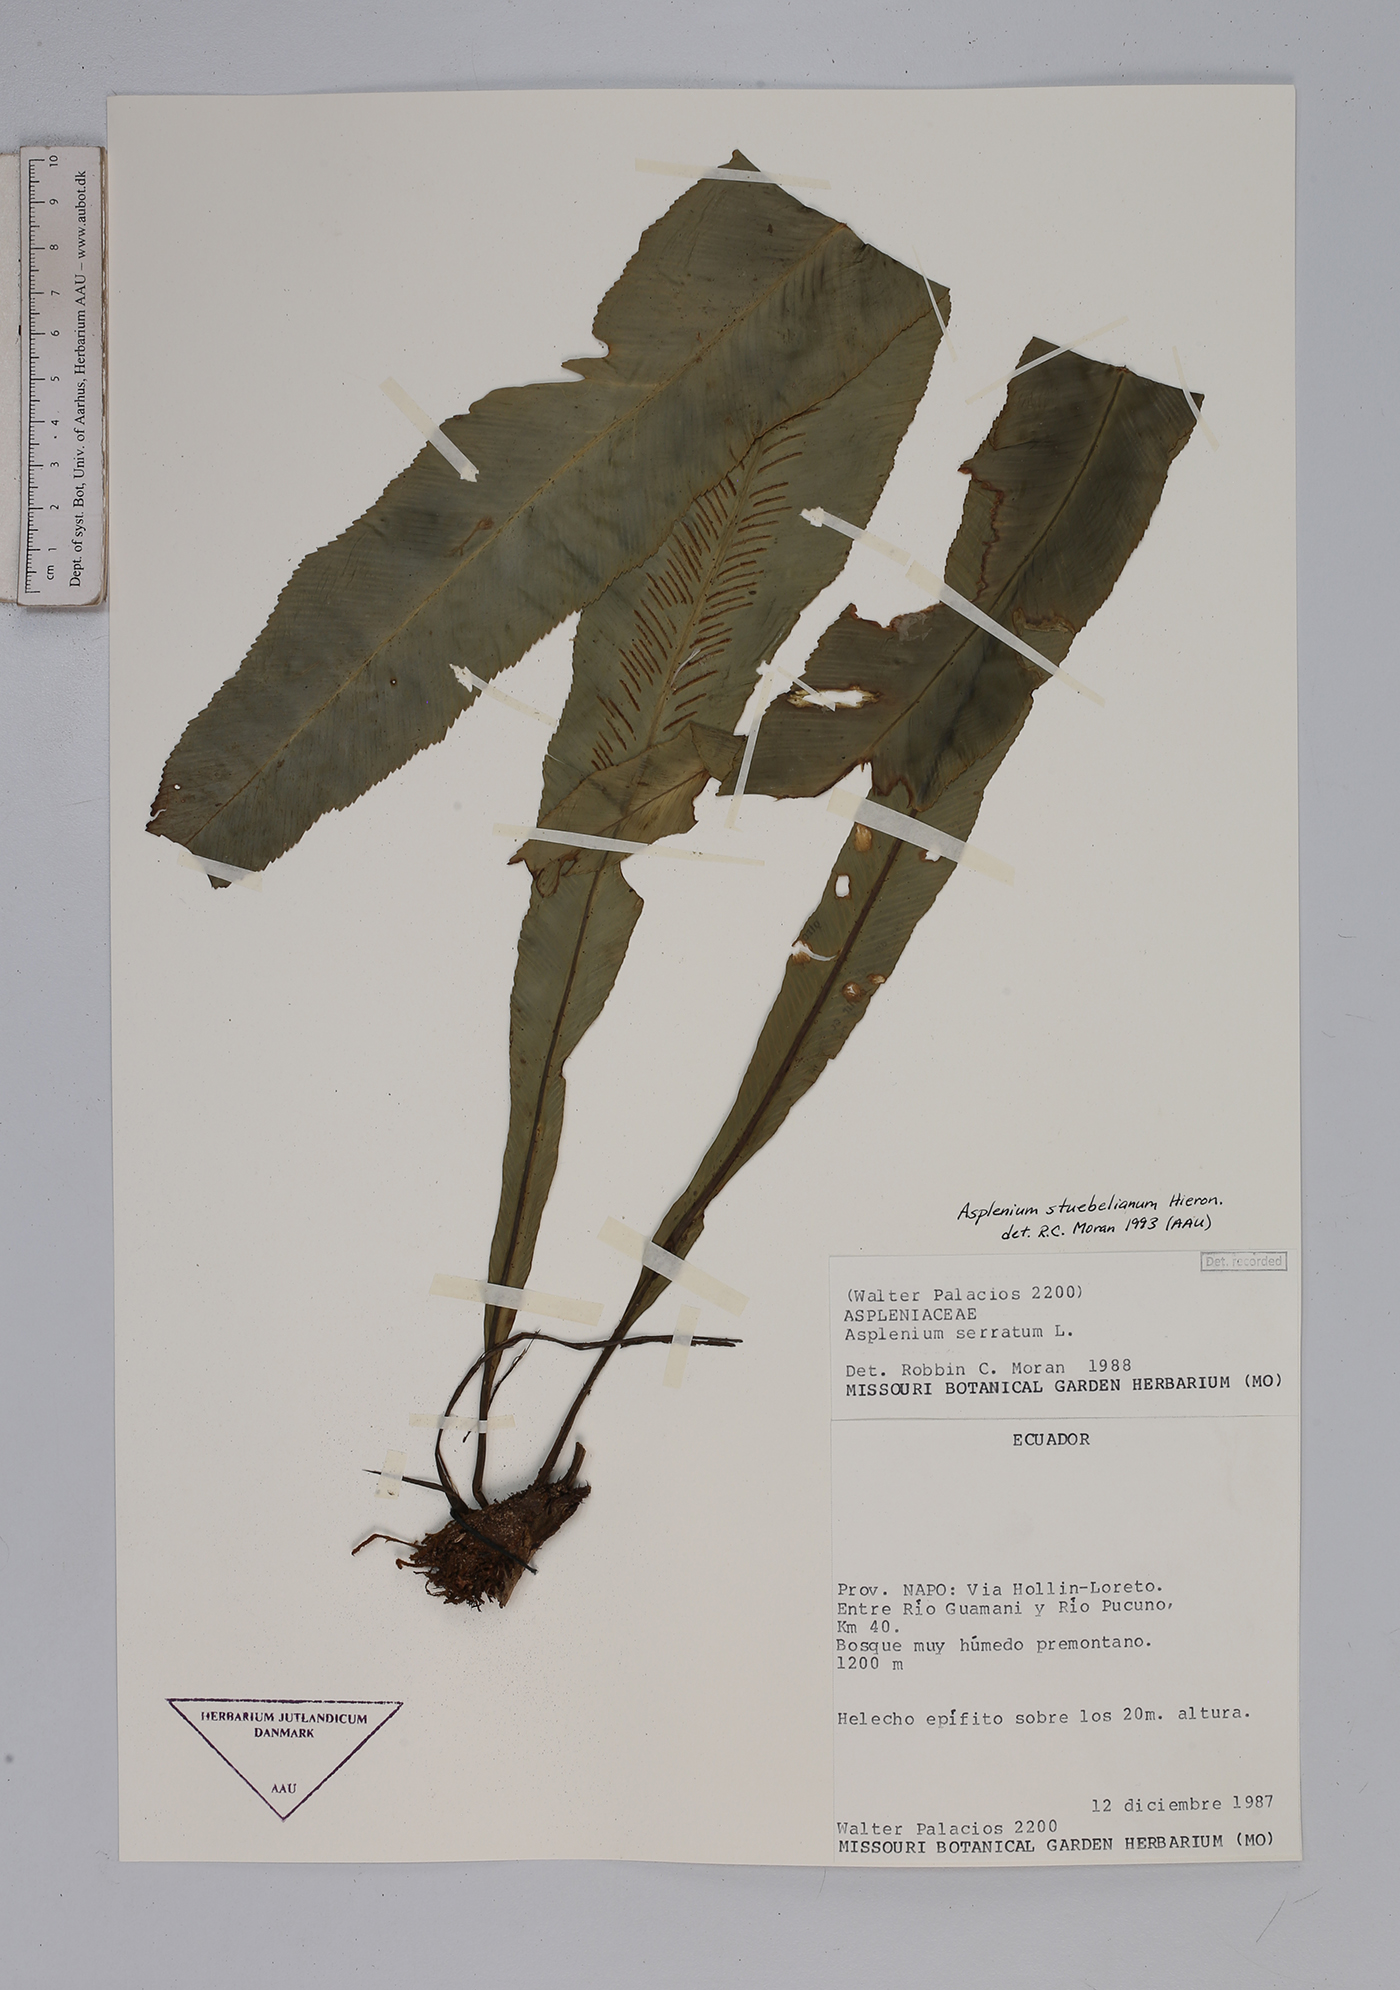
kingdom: Plantae
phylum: Tracheophyta
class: Polypodiopsida
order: Polypodiales
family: Aspleniaceae
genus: Asplenium
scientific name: Asplenium stuebelianum
